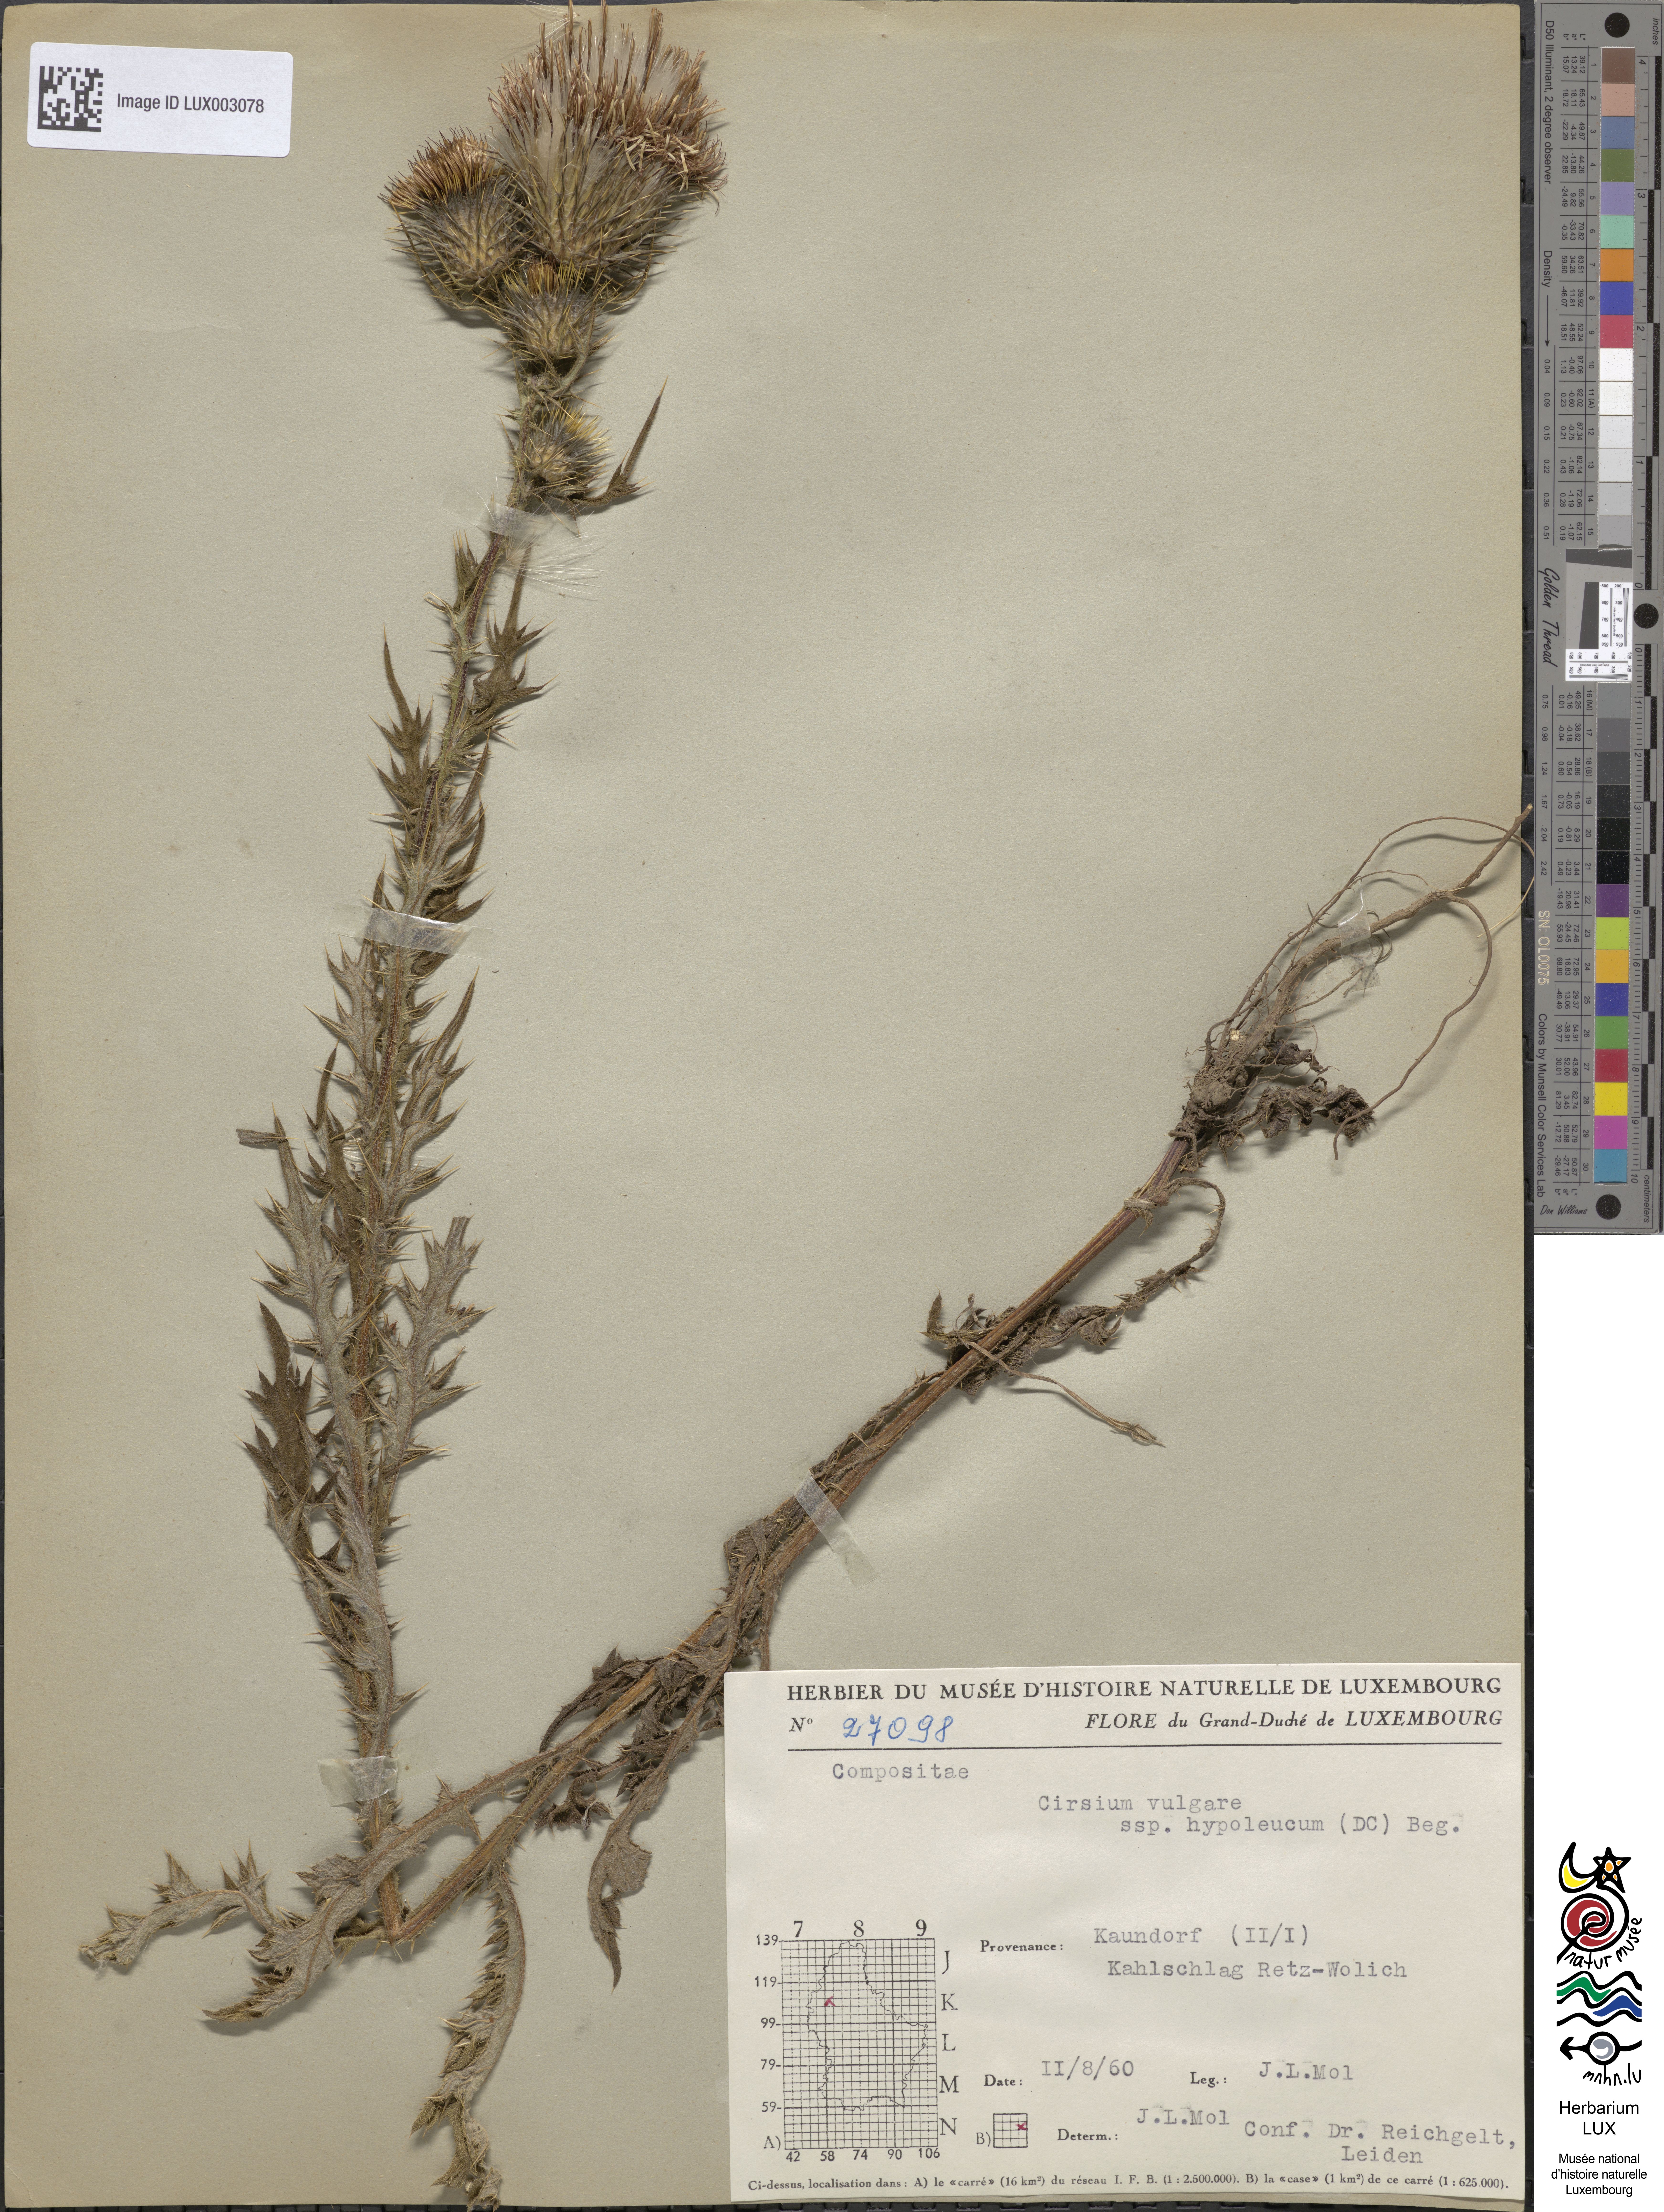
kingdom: Plantae
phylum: Tracheophyta
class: Magnoliopsida
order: Asterales
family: Asteraceae
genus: Cirsium
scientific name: Cirsium vulgare
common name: Bull thistle
